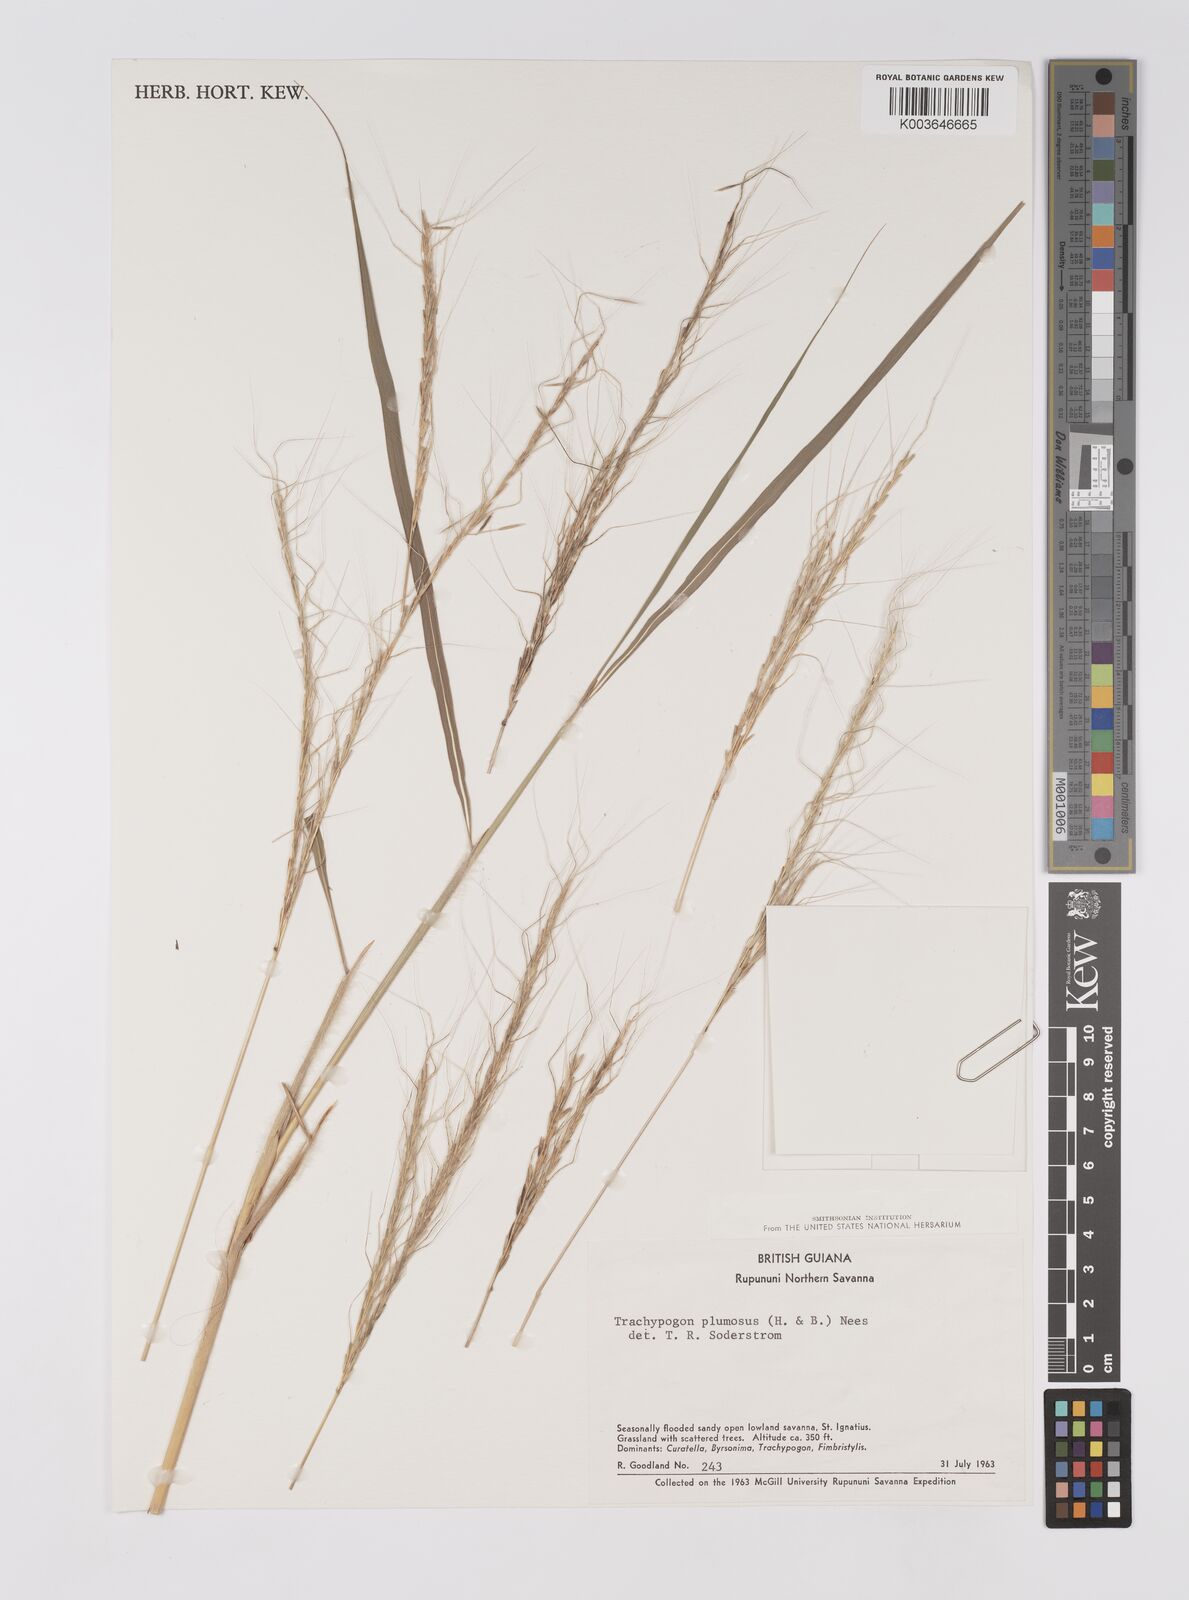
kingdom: Plantae
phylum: Tracheophyta
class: Liliopsida
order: Poales
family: Poaceae
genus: Trachypogon
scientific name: Trachypogon spicatus
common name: Crinkle-awn
